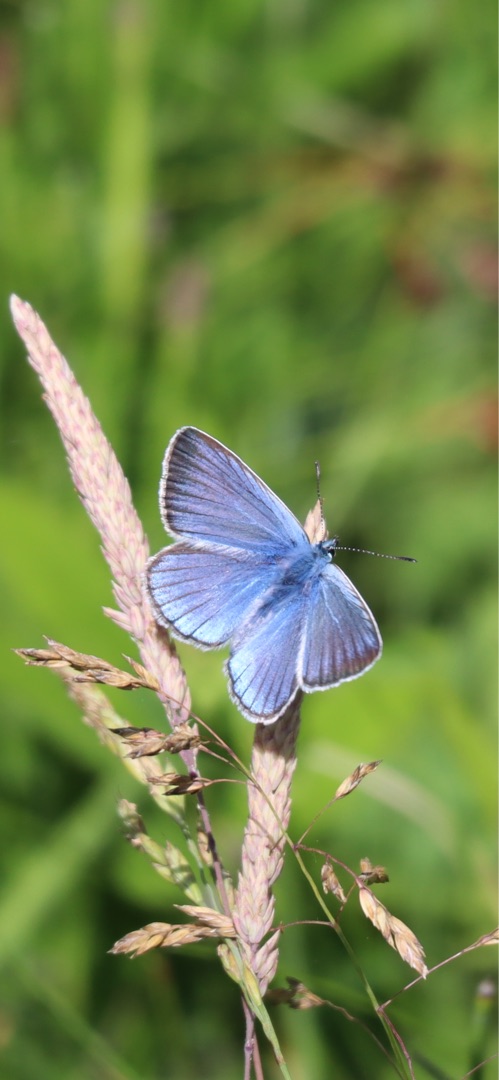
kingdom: Animalia
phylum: Arthropoda
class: Insecta
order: Lepidoptera
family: Lycaenidae
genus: Plebejus
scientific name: Plebejus amanda
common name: Isblåfugl
